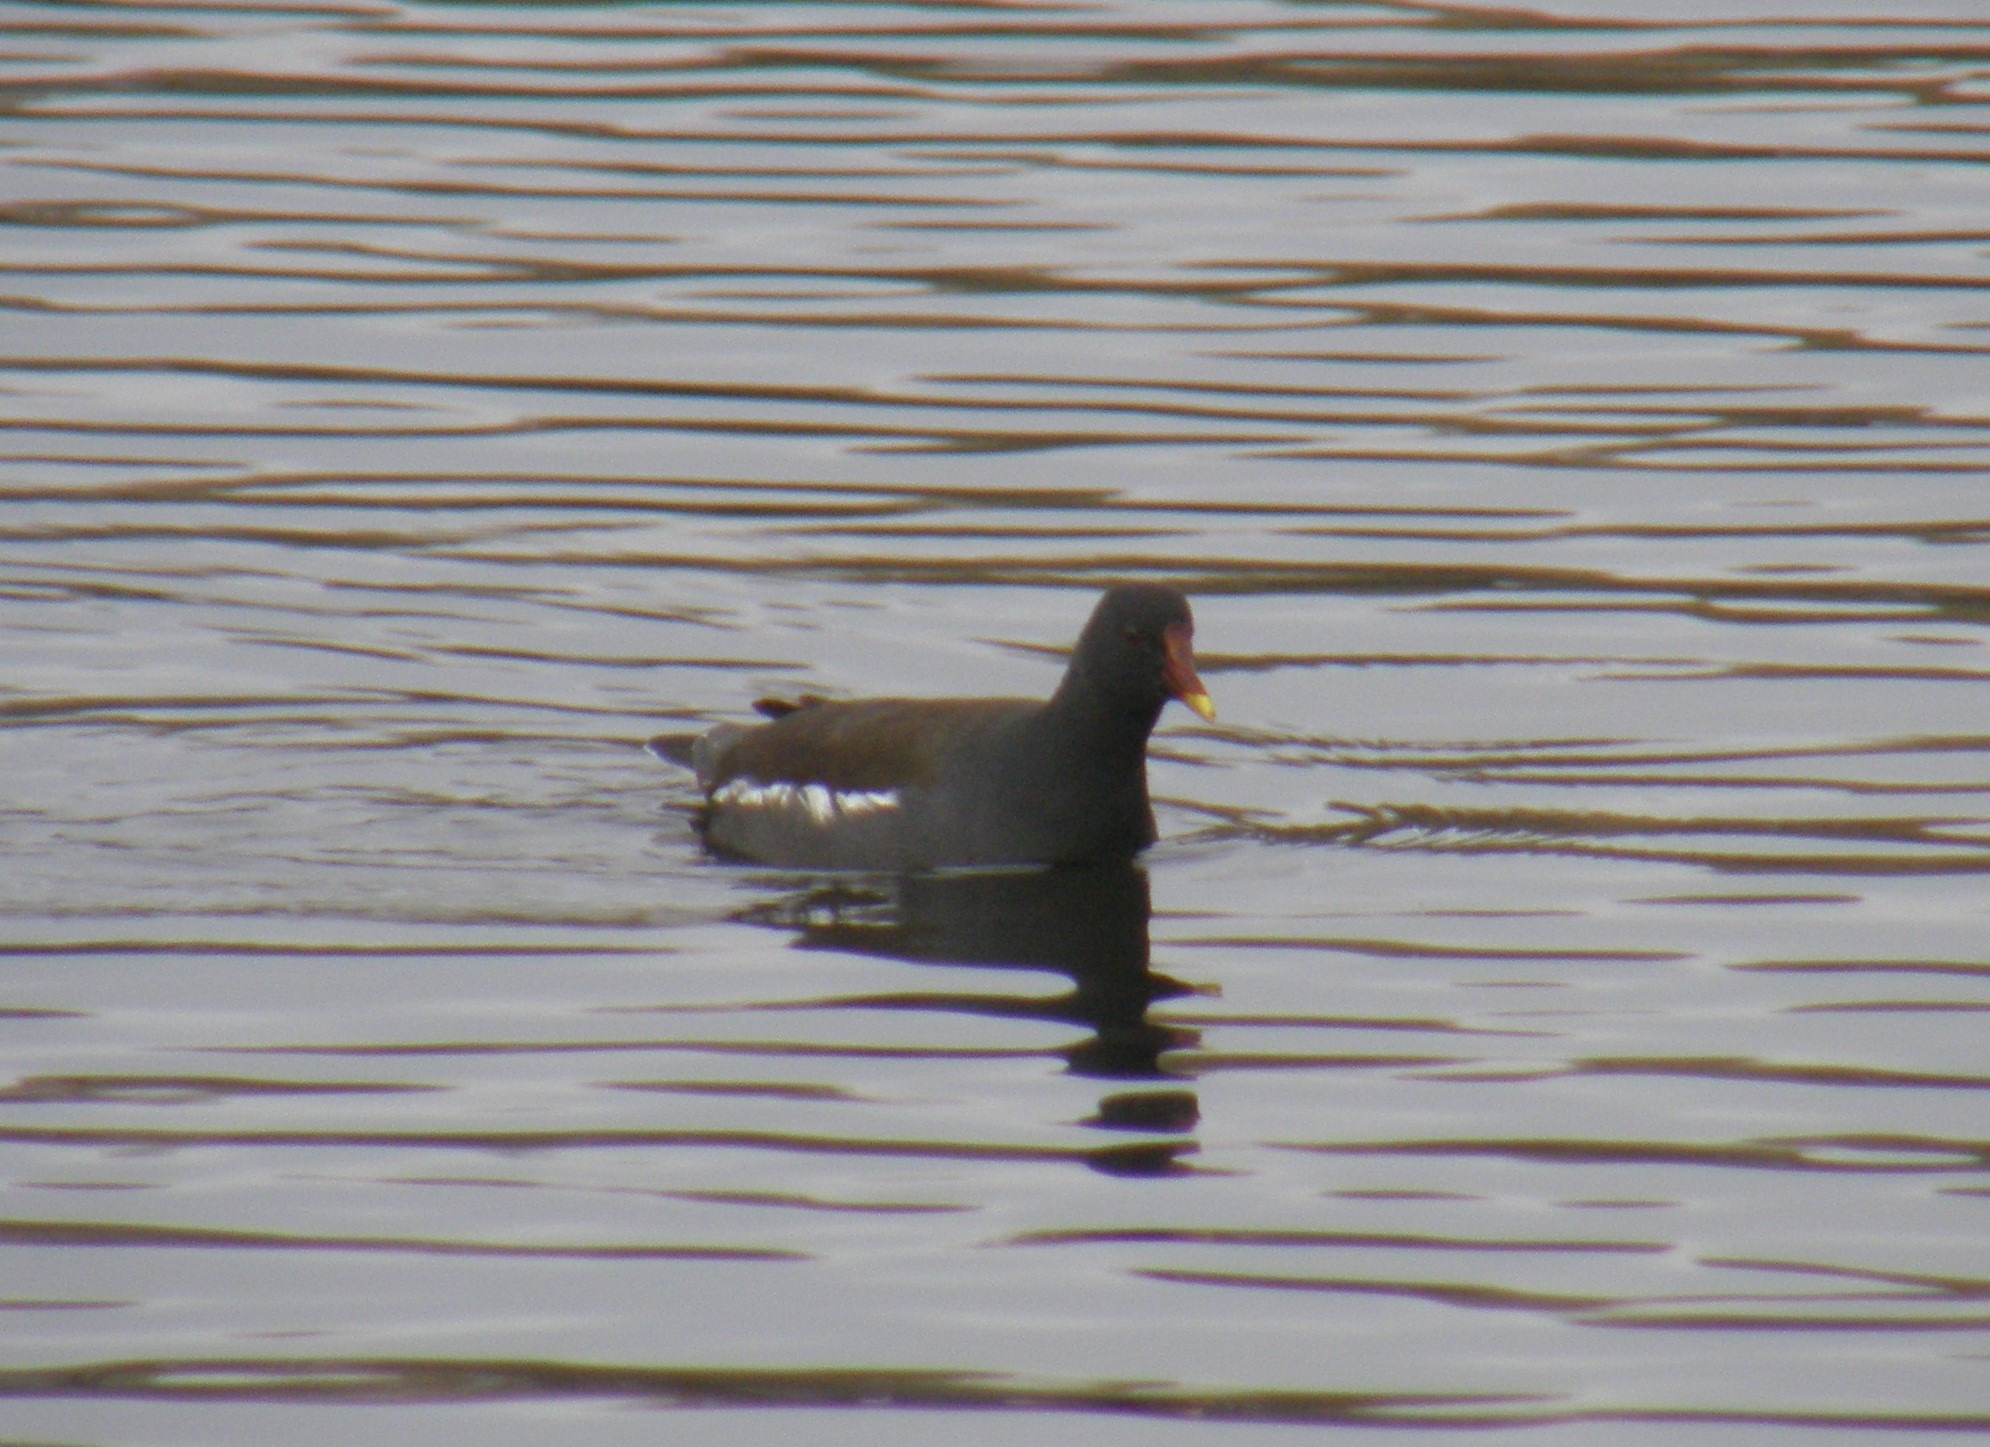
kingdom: Animalia
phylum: Chordata
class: Aves
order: Gruiformes
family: Rallidae
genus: Gallinula
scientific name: Gallinula chloropus
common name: Grønbenet rørhøne
